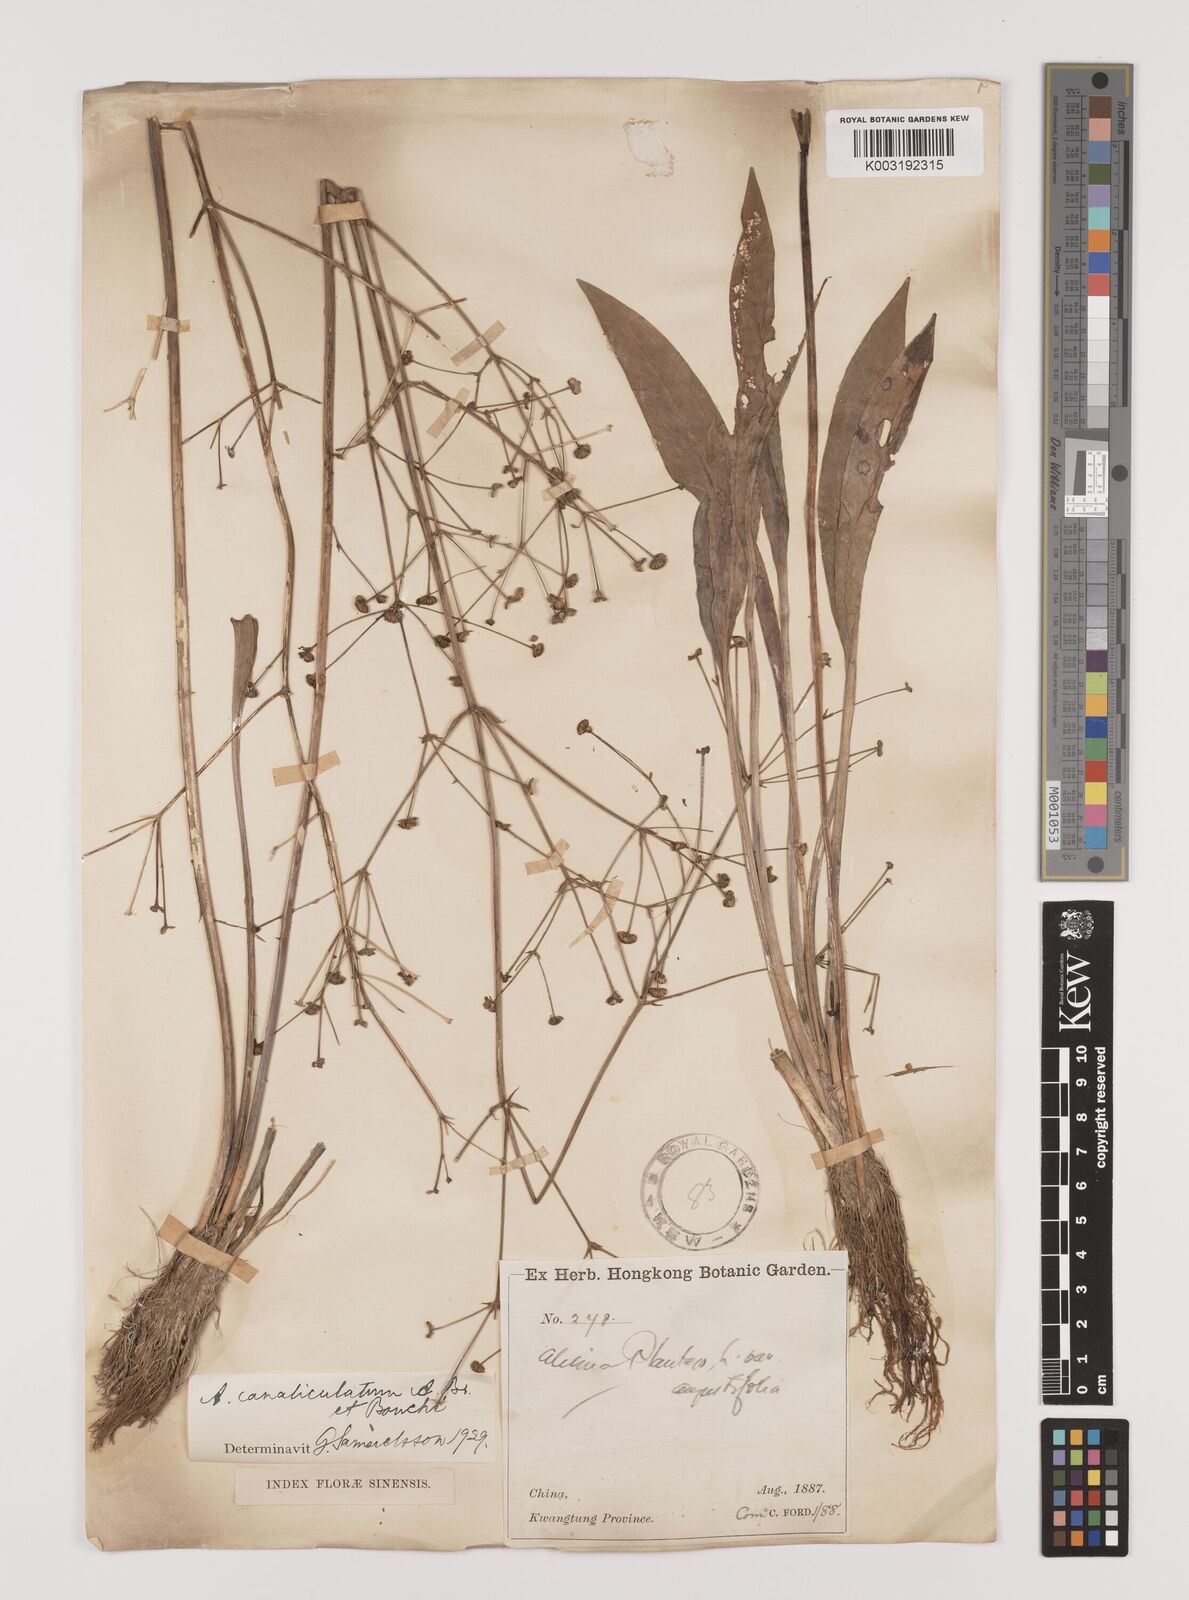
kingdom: Plantae
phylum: Tracheophyta
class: Liliopsida
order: Alismatales
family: Alismataceae
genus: Alisma
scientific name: Alisma canaliculatum
